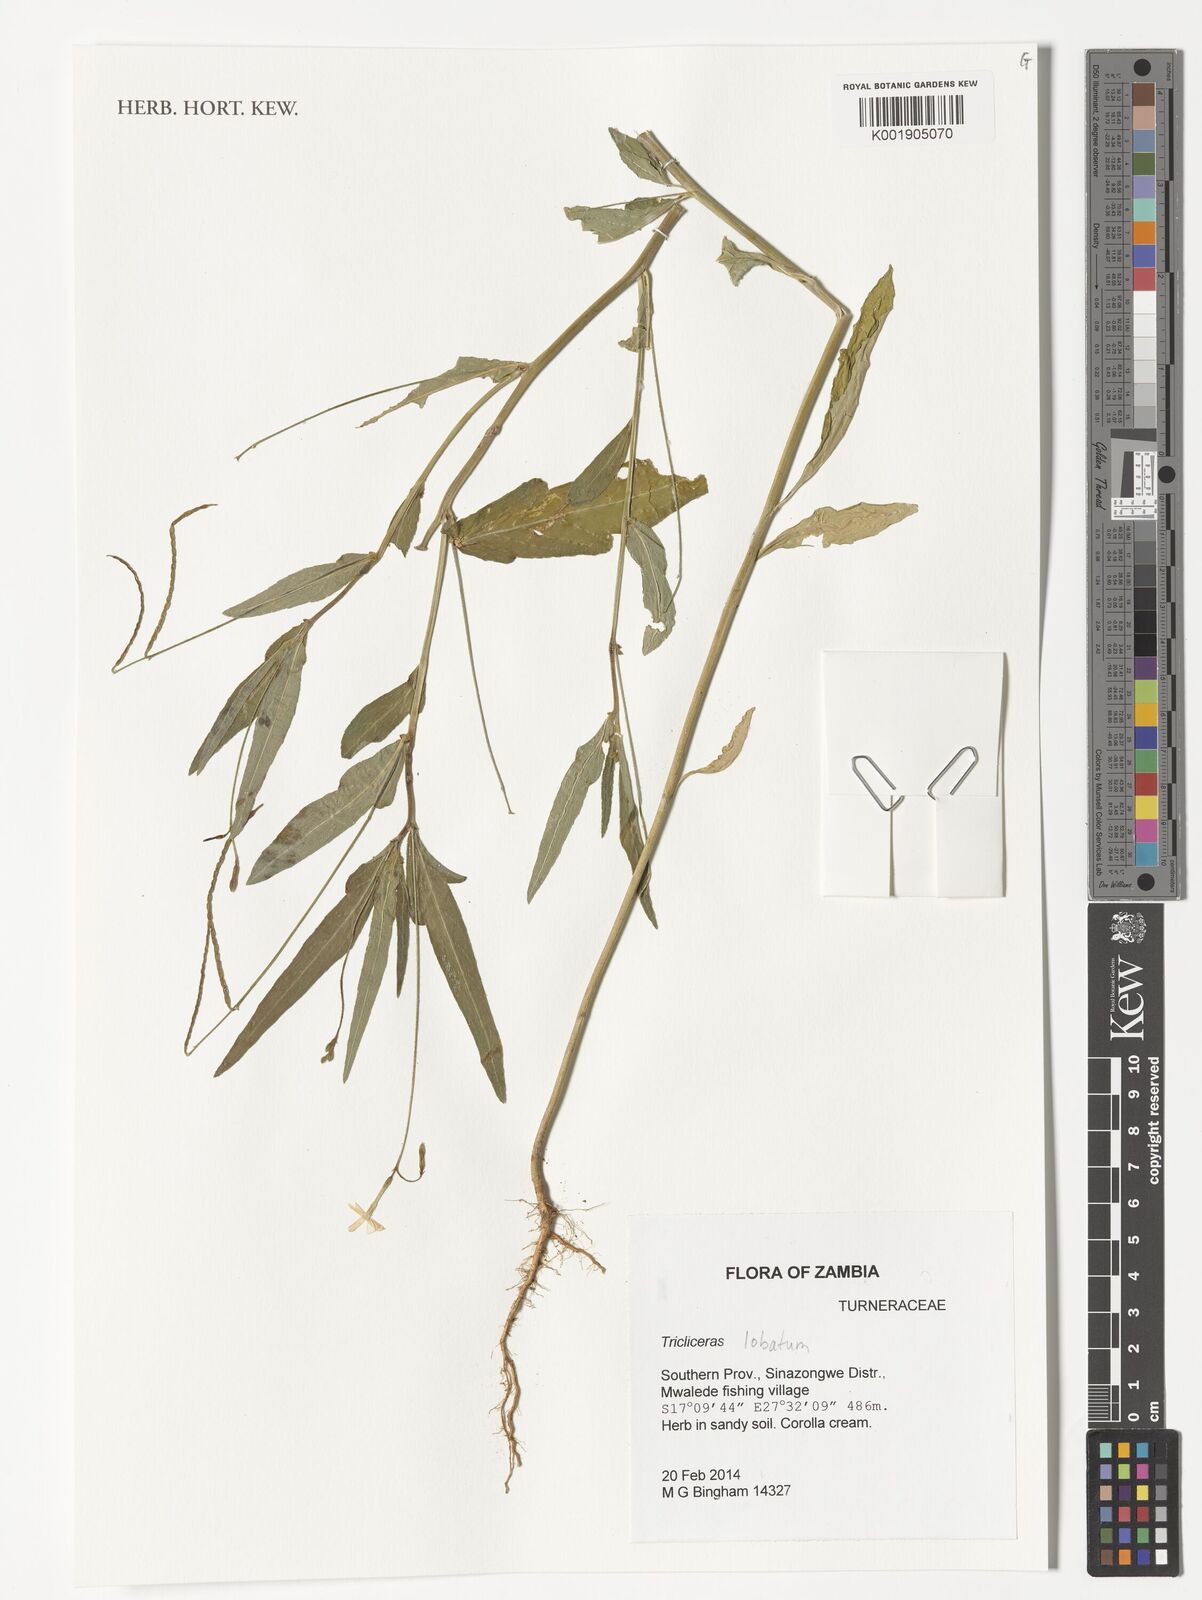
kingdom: Plantae
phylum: Tracheophyta
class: Magnoliopsida
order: Malpighiales
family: Turneraceae
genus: Tricliceras
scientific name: Tricliceras lobatum
